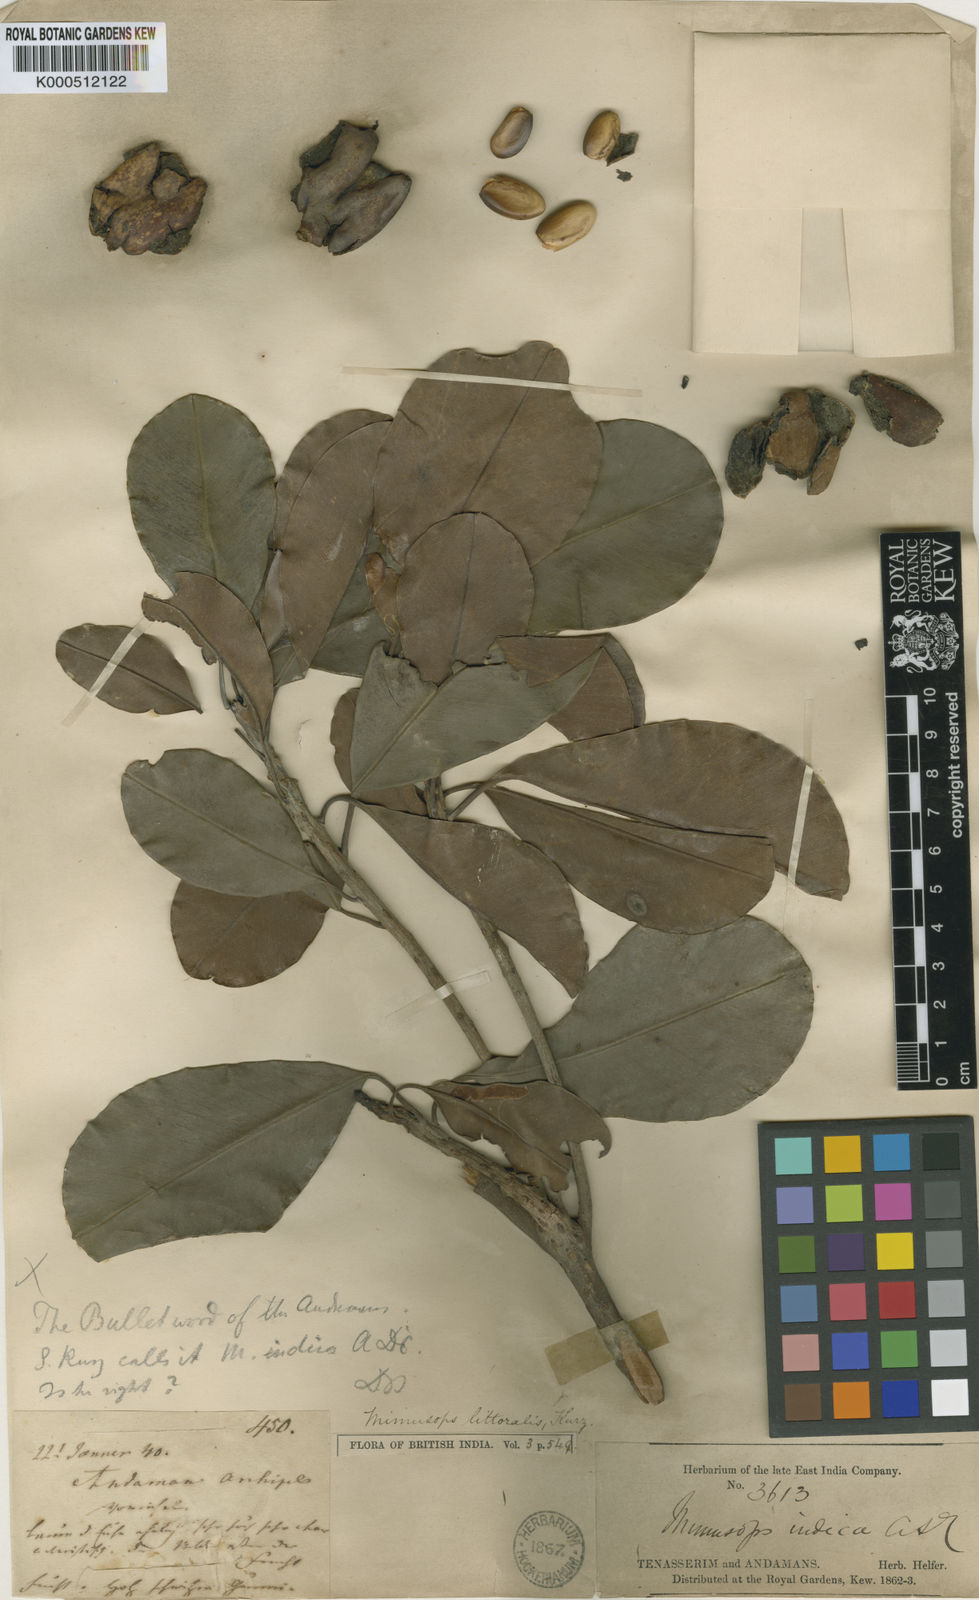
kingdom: Plantae
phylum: Tracheophyta
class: Magnoliopsida
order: Ericales
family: Sapotaceae
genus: Manilkara
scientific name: Manilkara littoralis
